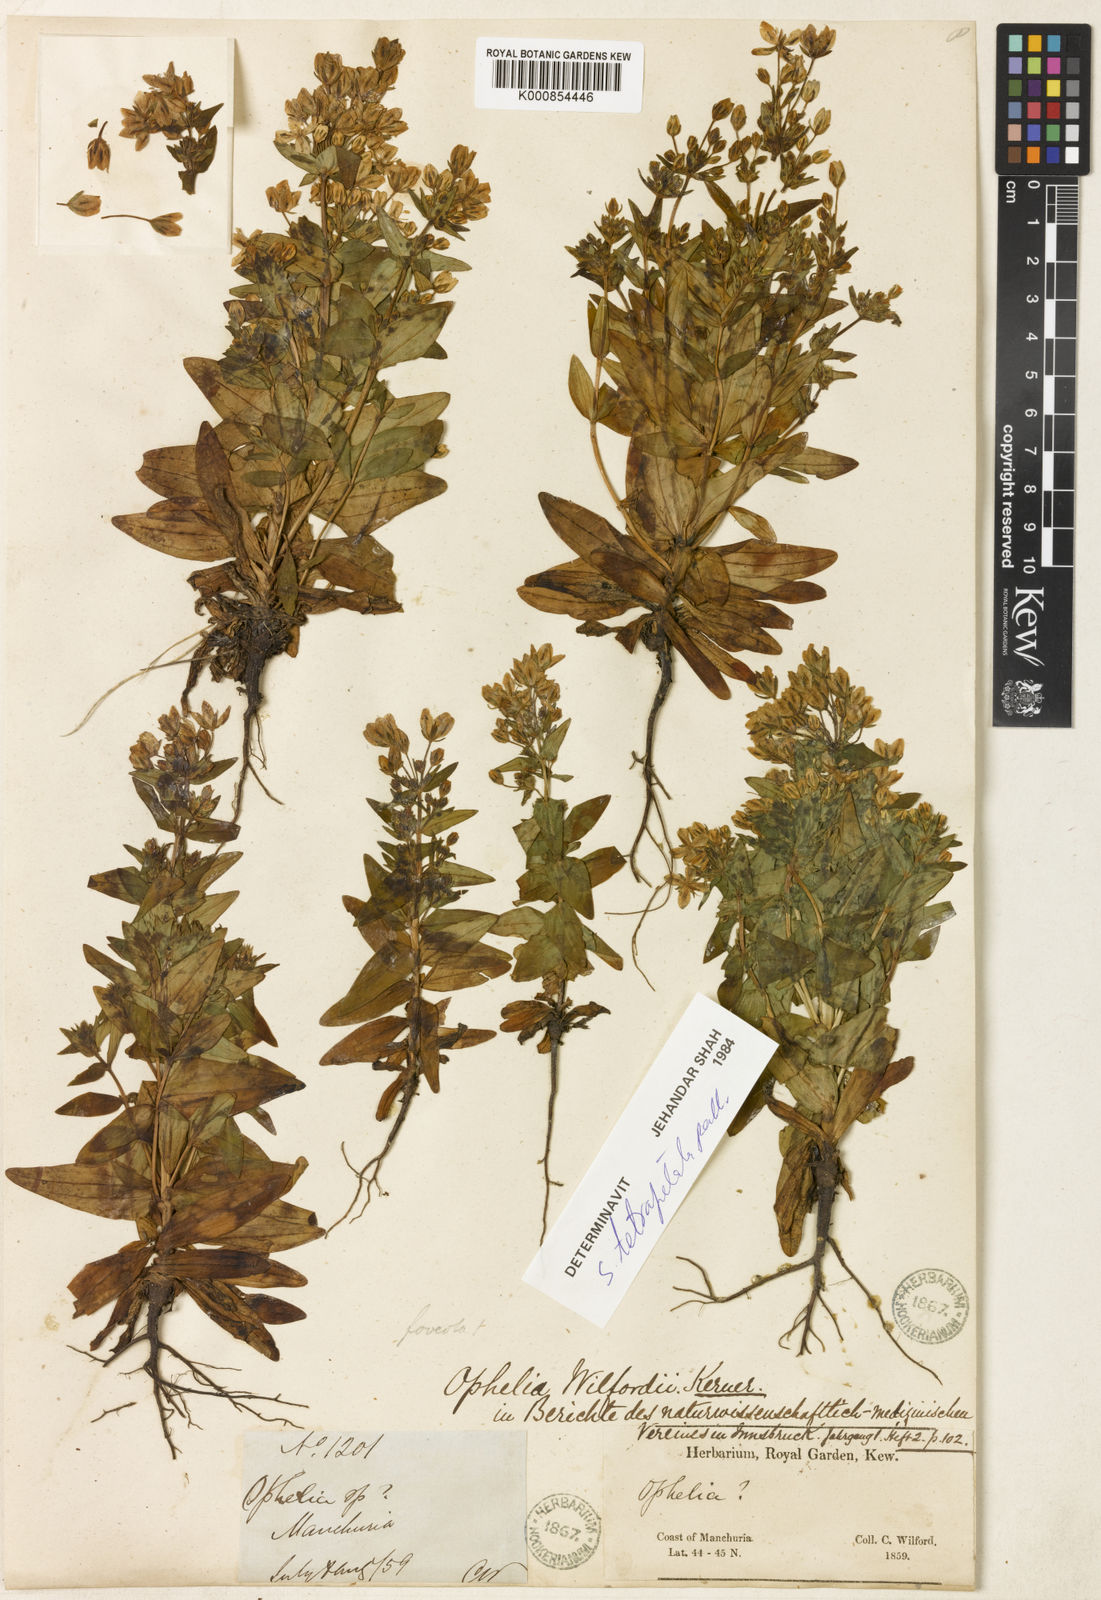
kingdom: Plantae
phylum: Tracheophyta
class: Magnoliopsida
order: Gentianales
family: Gentianaceae
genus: Swertia
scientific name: Swertia tetrapetala
